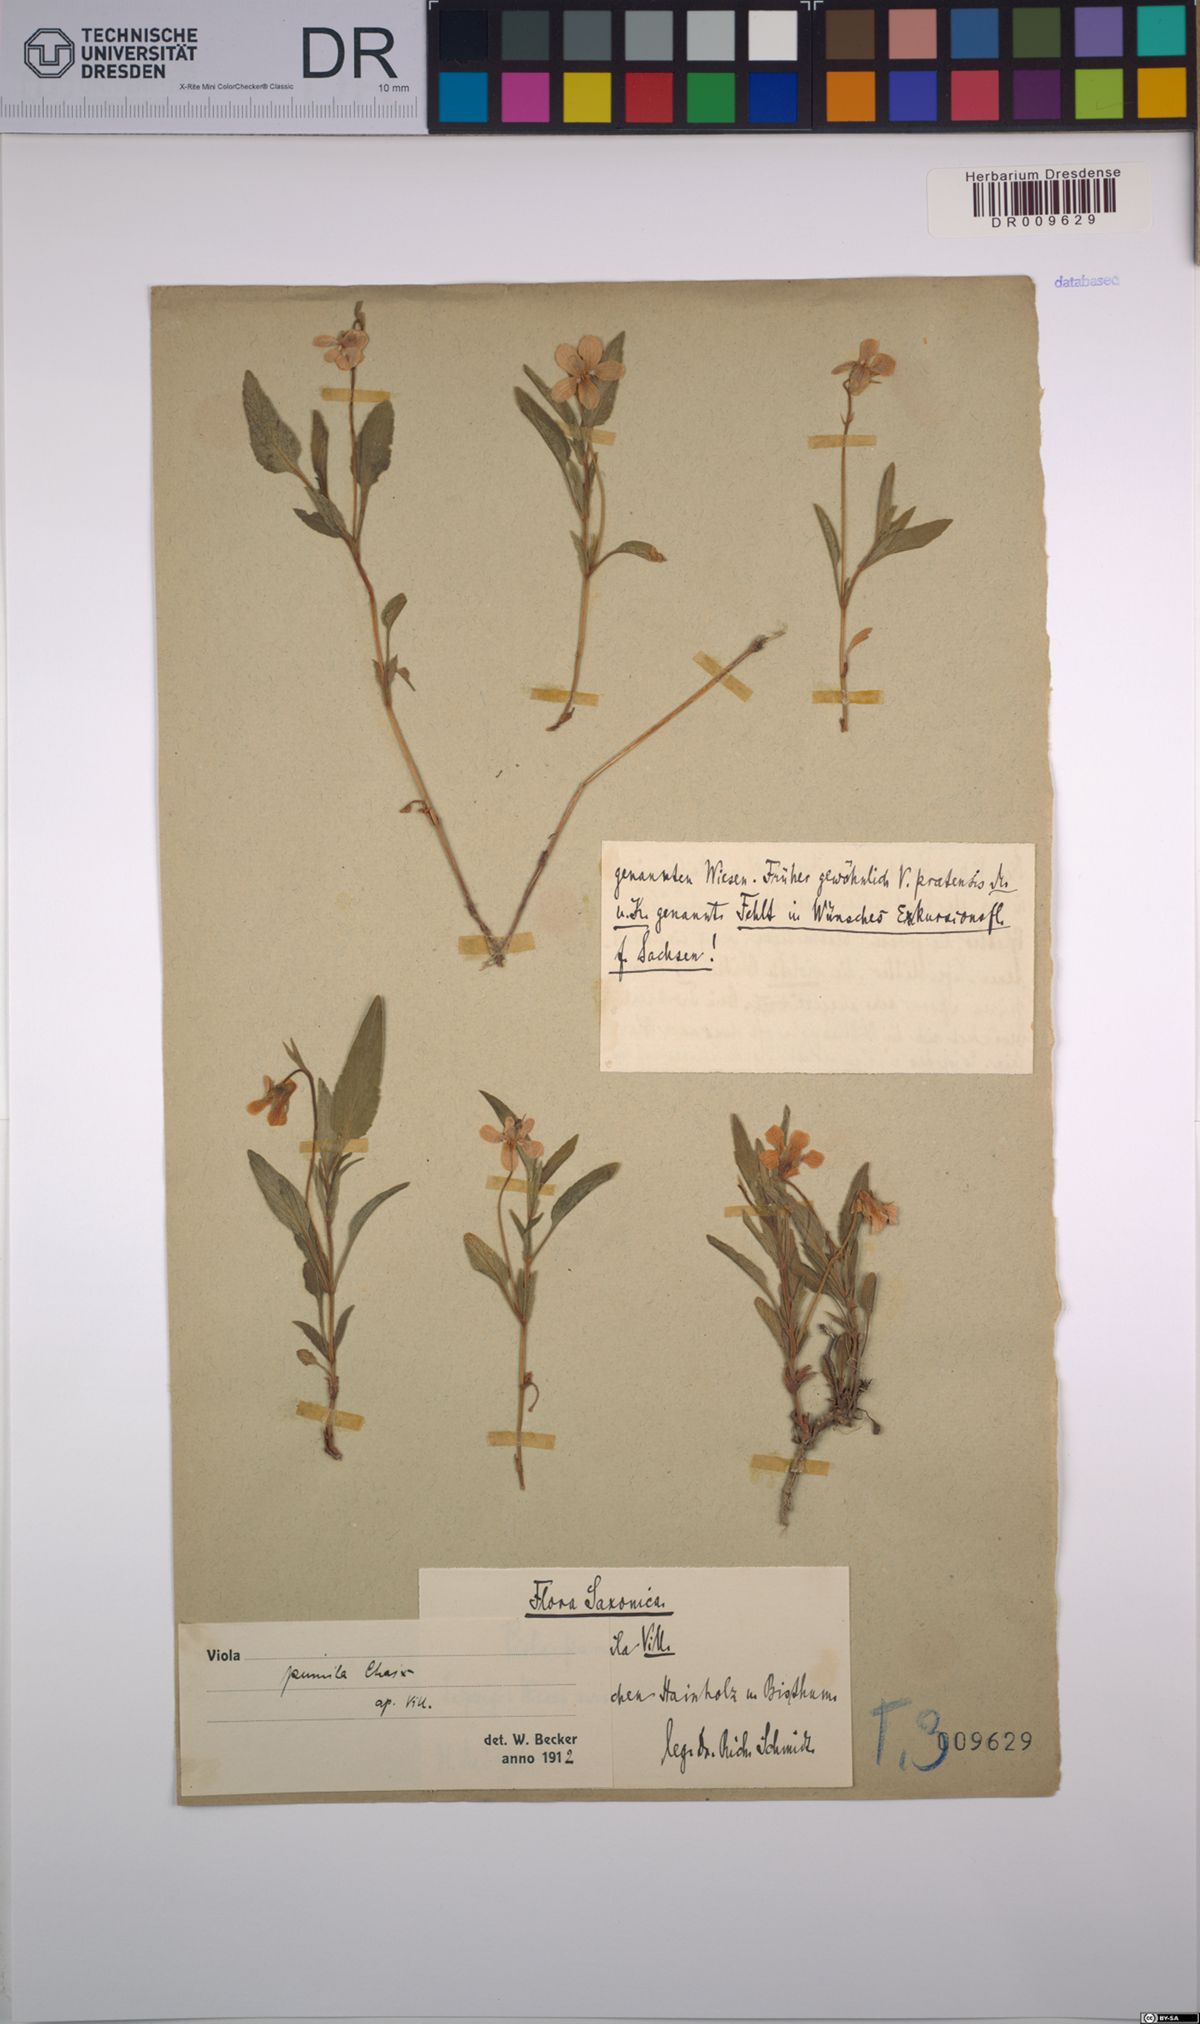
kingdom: Plantae
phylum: Tracheophyta
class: Magnoliopsida
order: Malpighiales
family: Violaceae
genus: Viola
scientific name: Viola pumila
